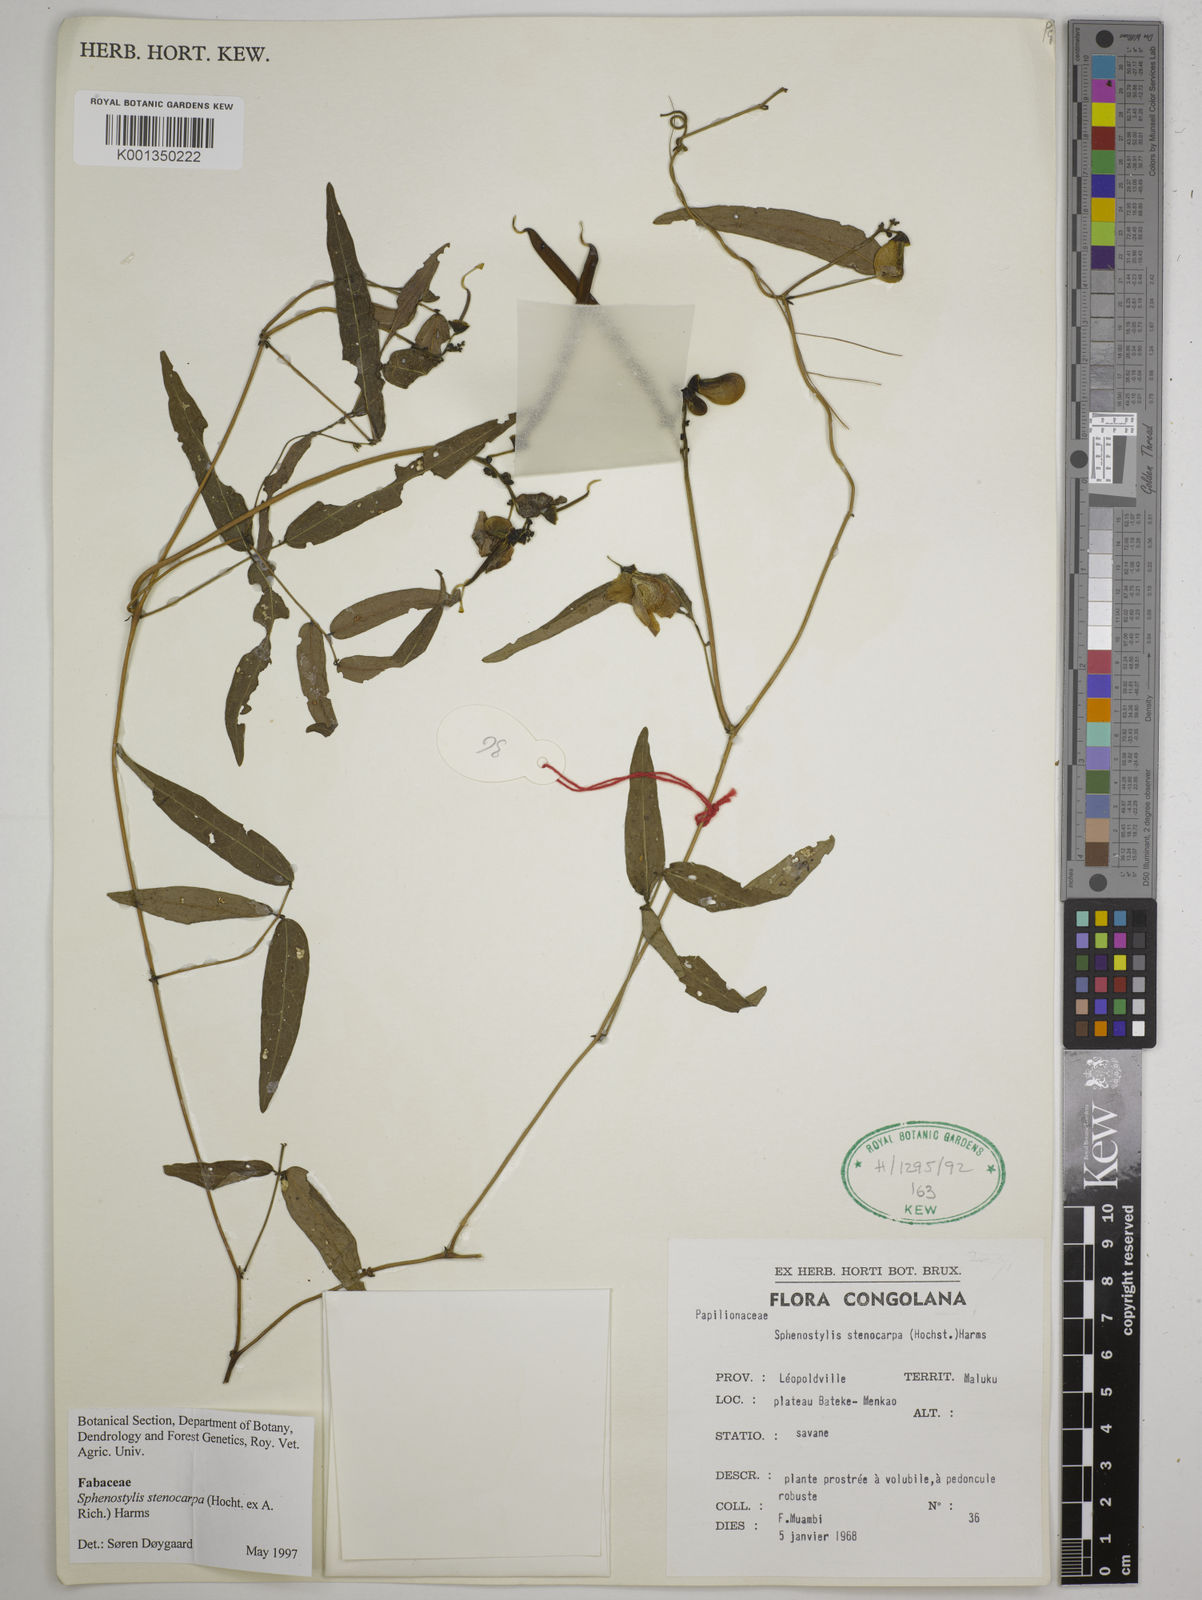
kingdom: Plantae
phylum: Tracheophyta
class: Magnoliopsida
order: Fabales
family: Fabaceae
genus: Sphenostylis
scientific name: Sphenostylis stenocarpa
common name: Yam-pea
